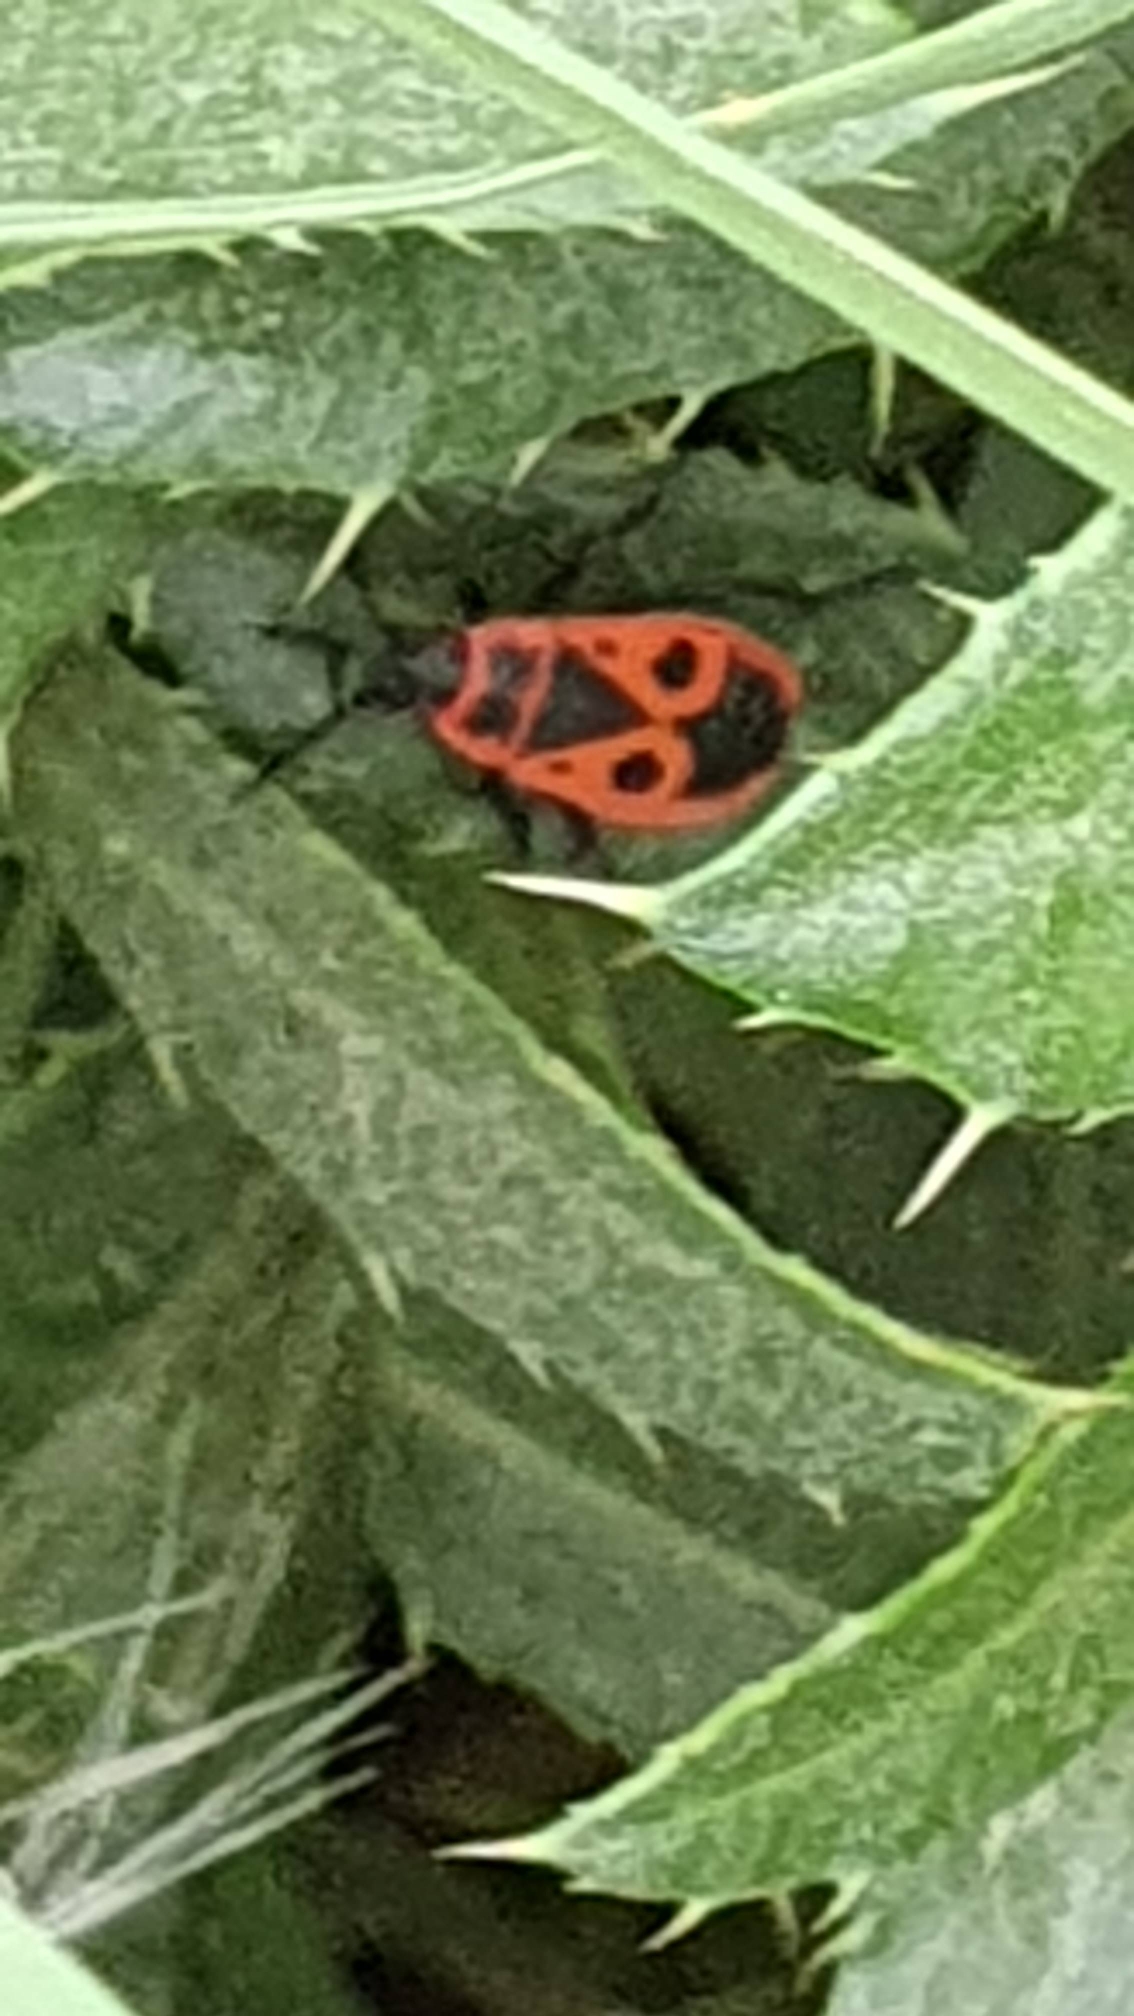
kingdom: Animalia
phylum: Arthropoda
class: Insecta
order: Hemiptera
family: Pyrrhocoridae
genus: Pyrrhocoris
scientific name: Pyrrhocoris apterus
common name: Ildtæge
